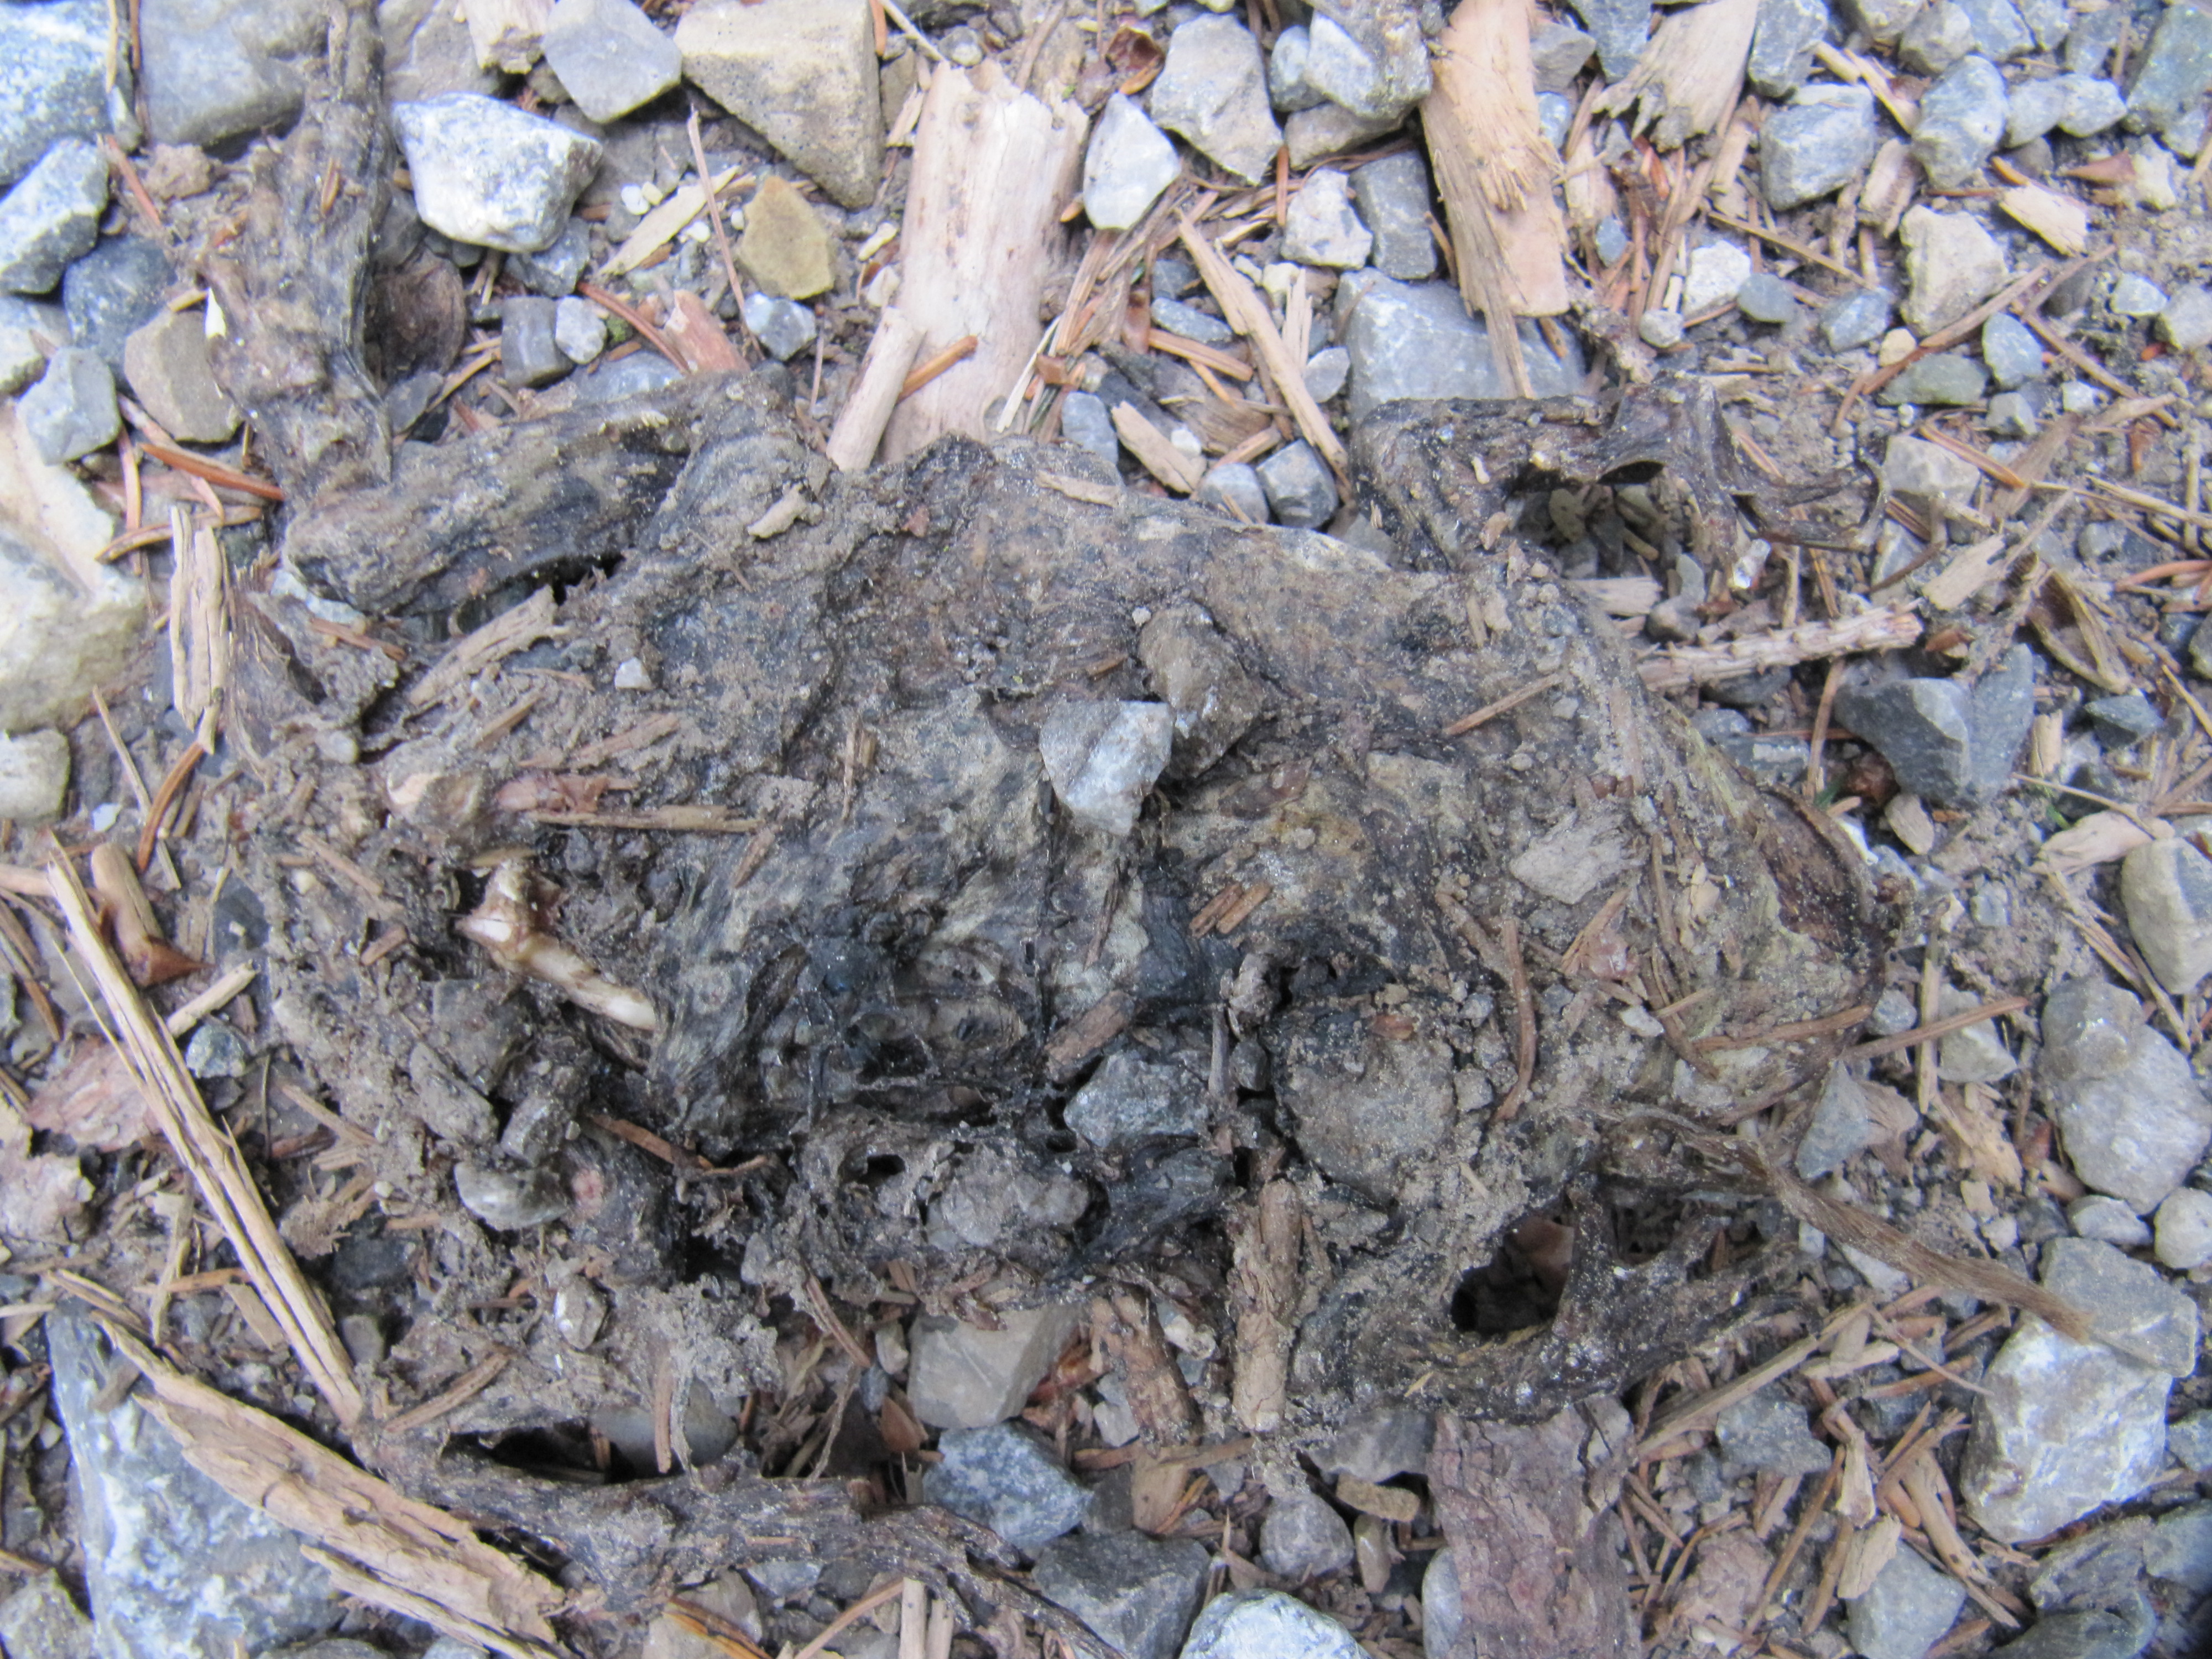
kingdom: Animalia
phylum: Chordata
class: Amphibia
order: Anura
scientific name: Anura
